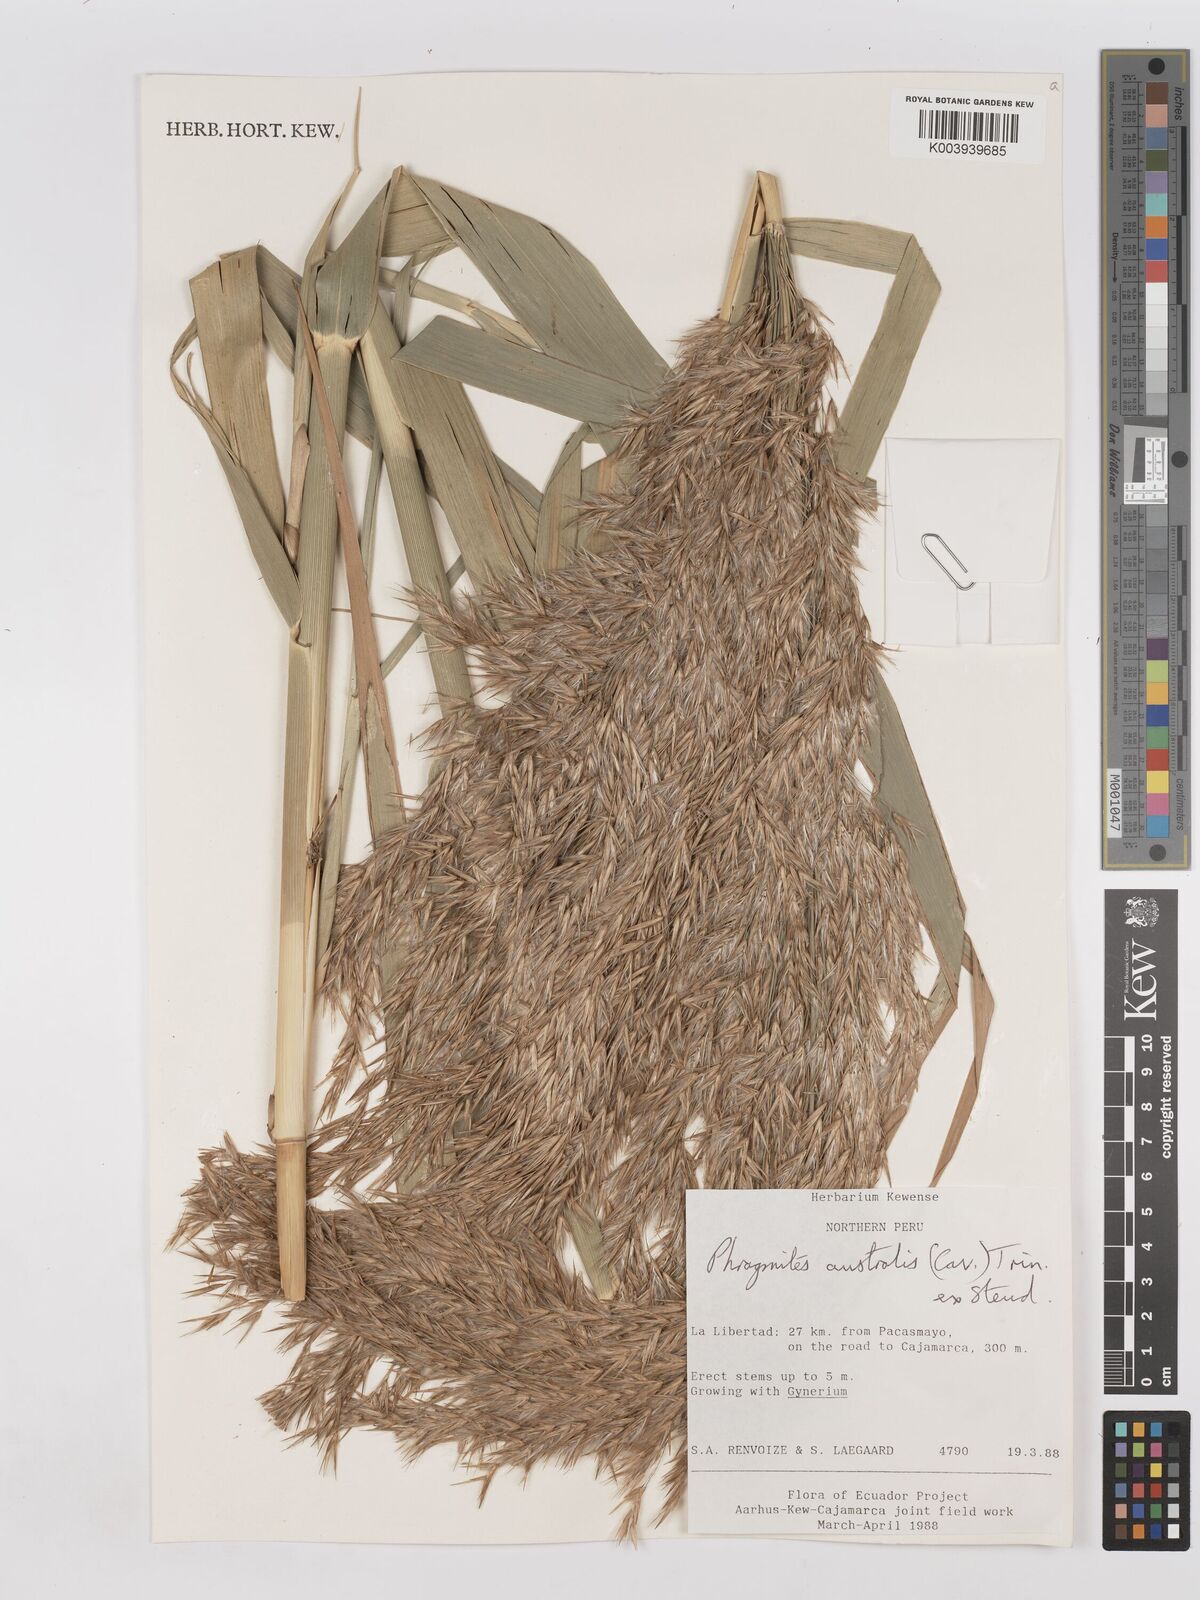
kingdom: Plantae
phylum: Tracheophyta
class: Liliopsida
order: Poales
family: Poaceae
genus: Phragmites
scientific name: Phragmites australis
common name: Common reed
